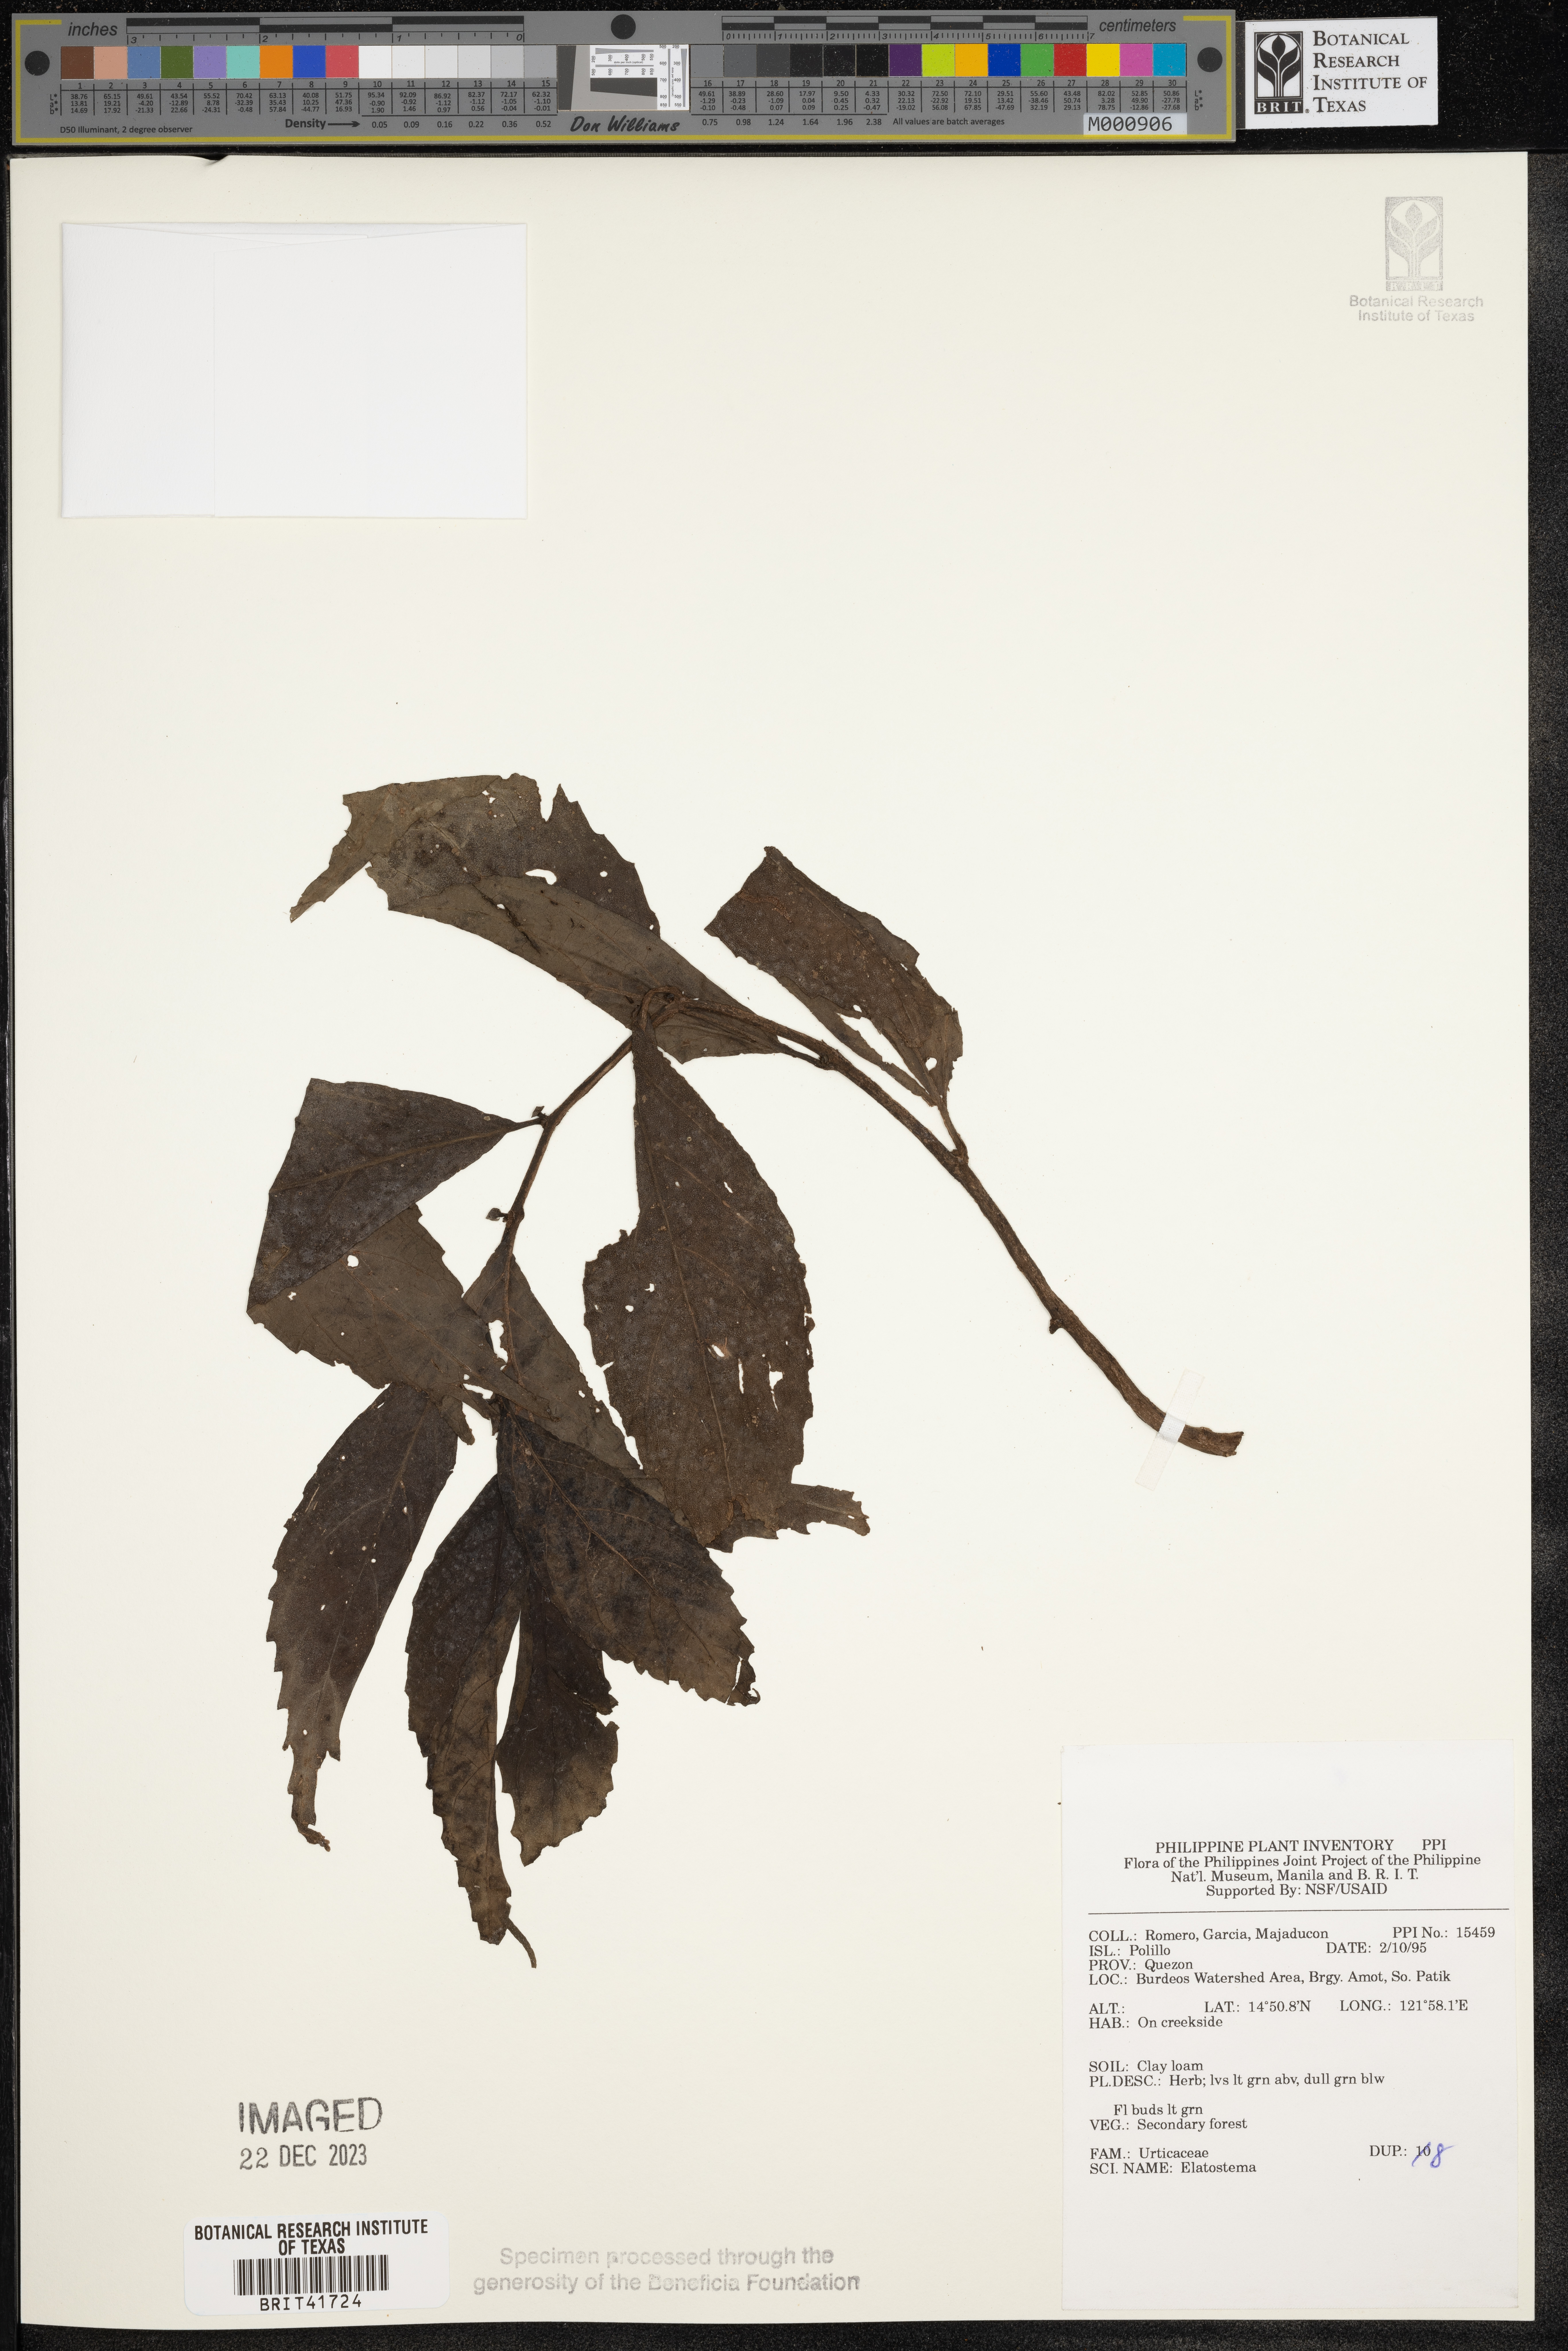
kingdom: Plantae
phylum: Tracheophyta
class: Magnoliopsida
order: Rosales
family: Urticaceae
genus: Elatostema
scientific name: Elatostema
